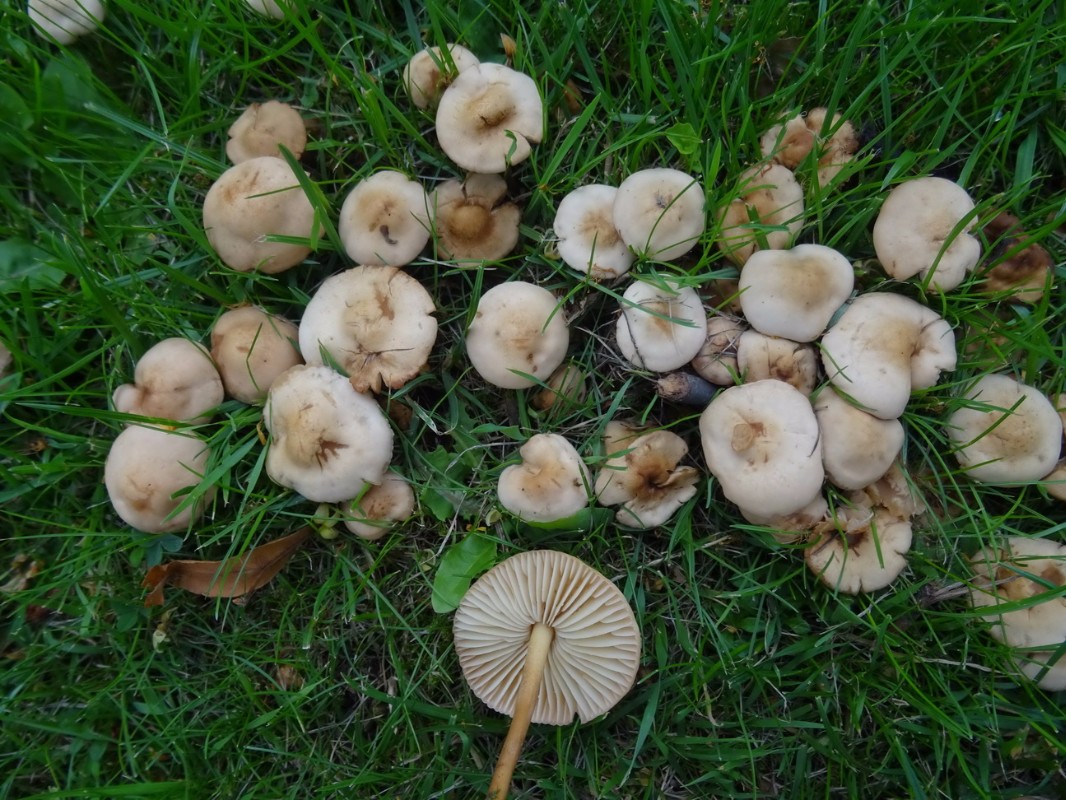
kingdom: Fungi
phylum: Basidiomycota
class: Agaricomycetes
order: Agaricales
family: Marasmiaceae
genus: Marasmius
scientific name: Marasmius oreades
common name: elledans-bruskhat
